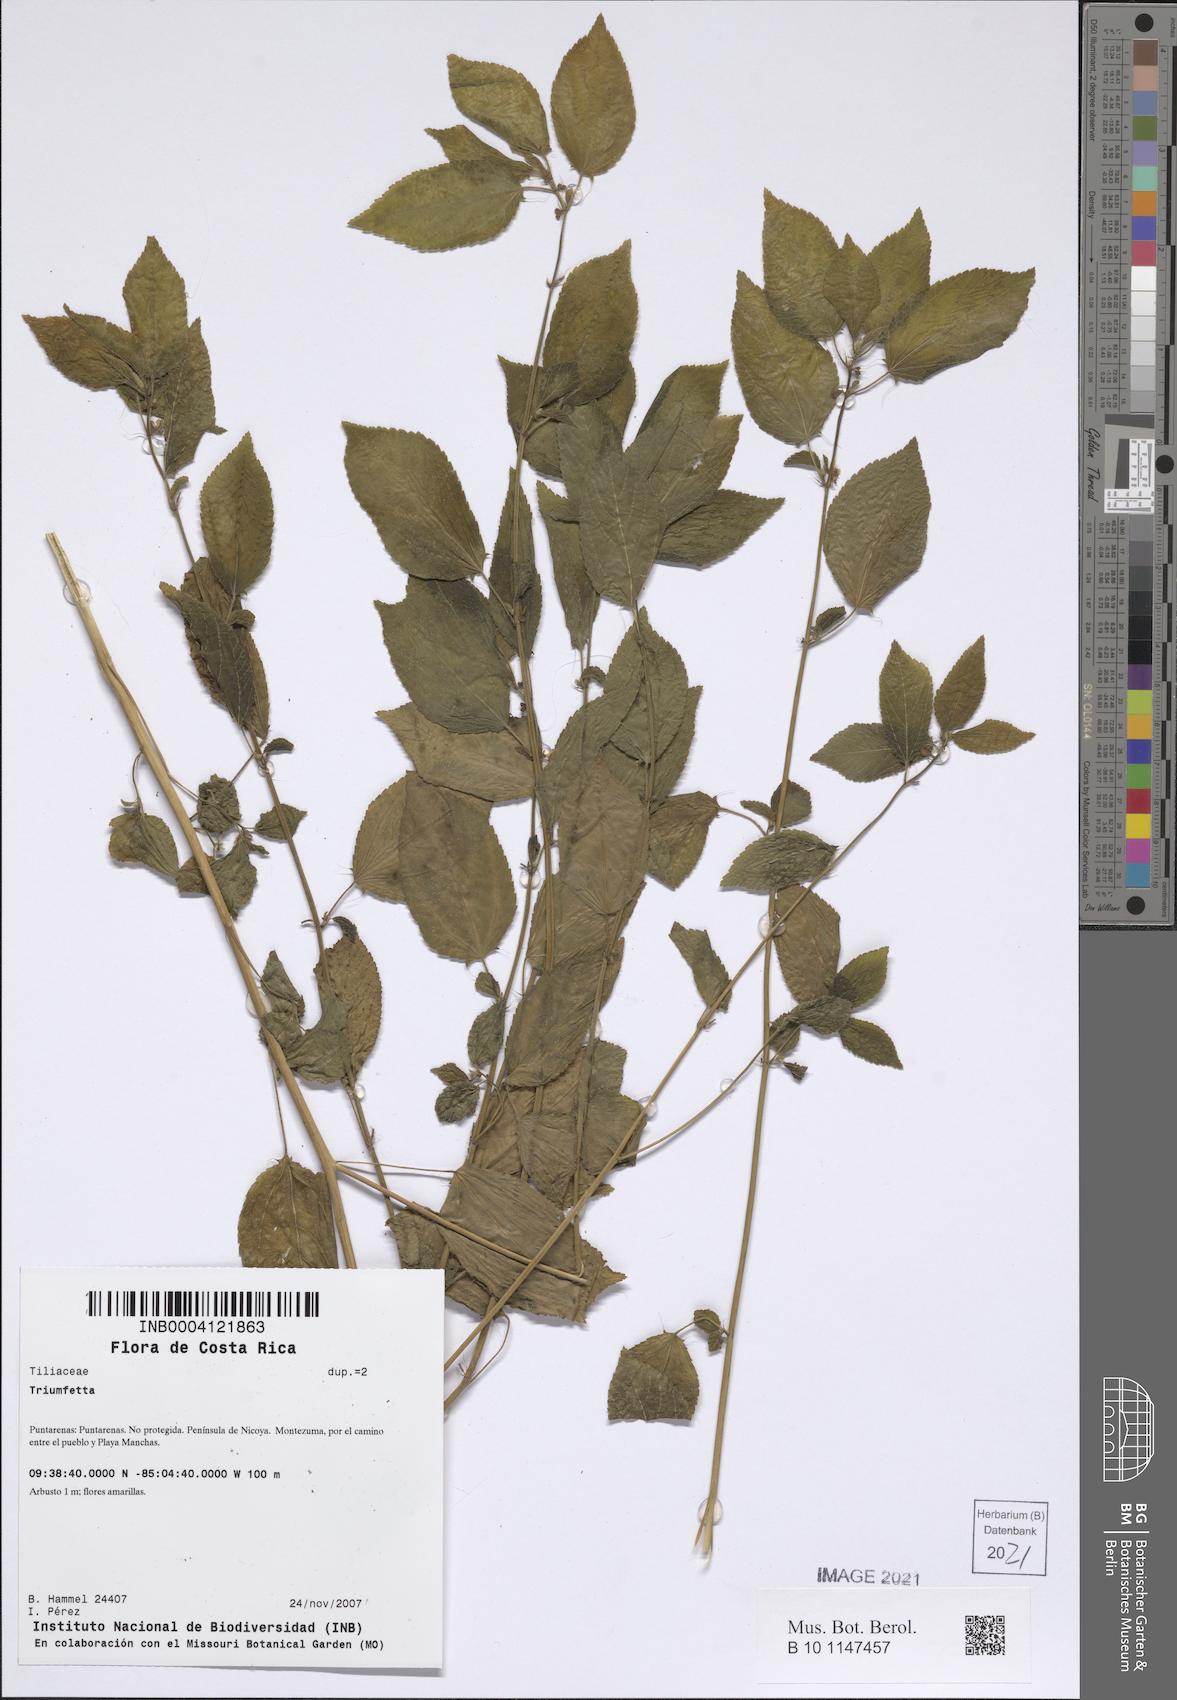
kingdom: Plantae
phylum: Tracheophyta
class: Magnoliopsida
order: Malvales
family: Malvaceae
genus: Triumfetta
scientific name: Triumfetta
